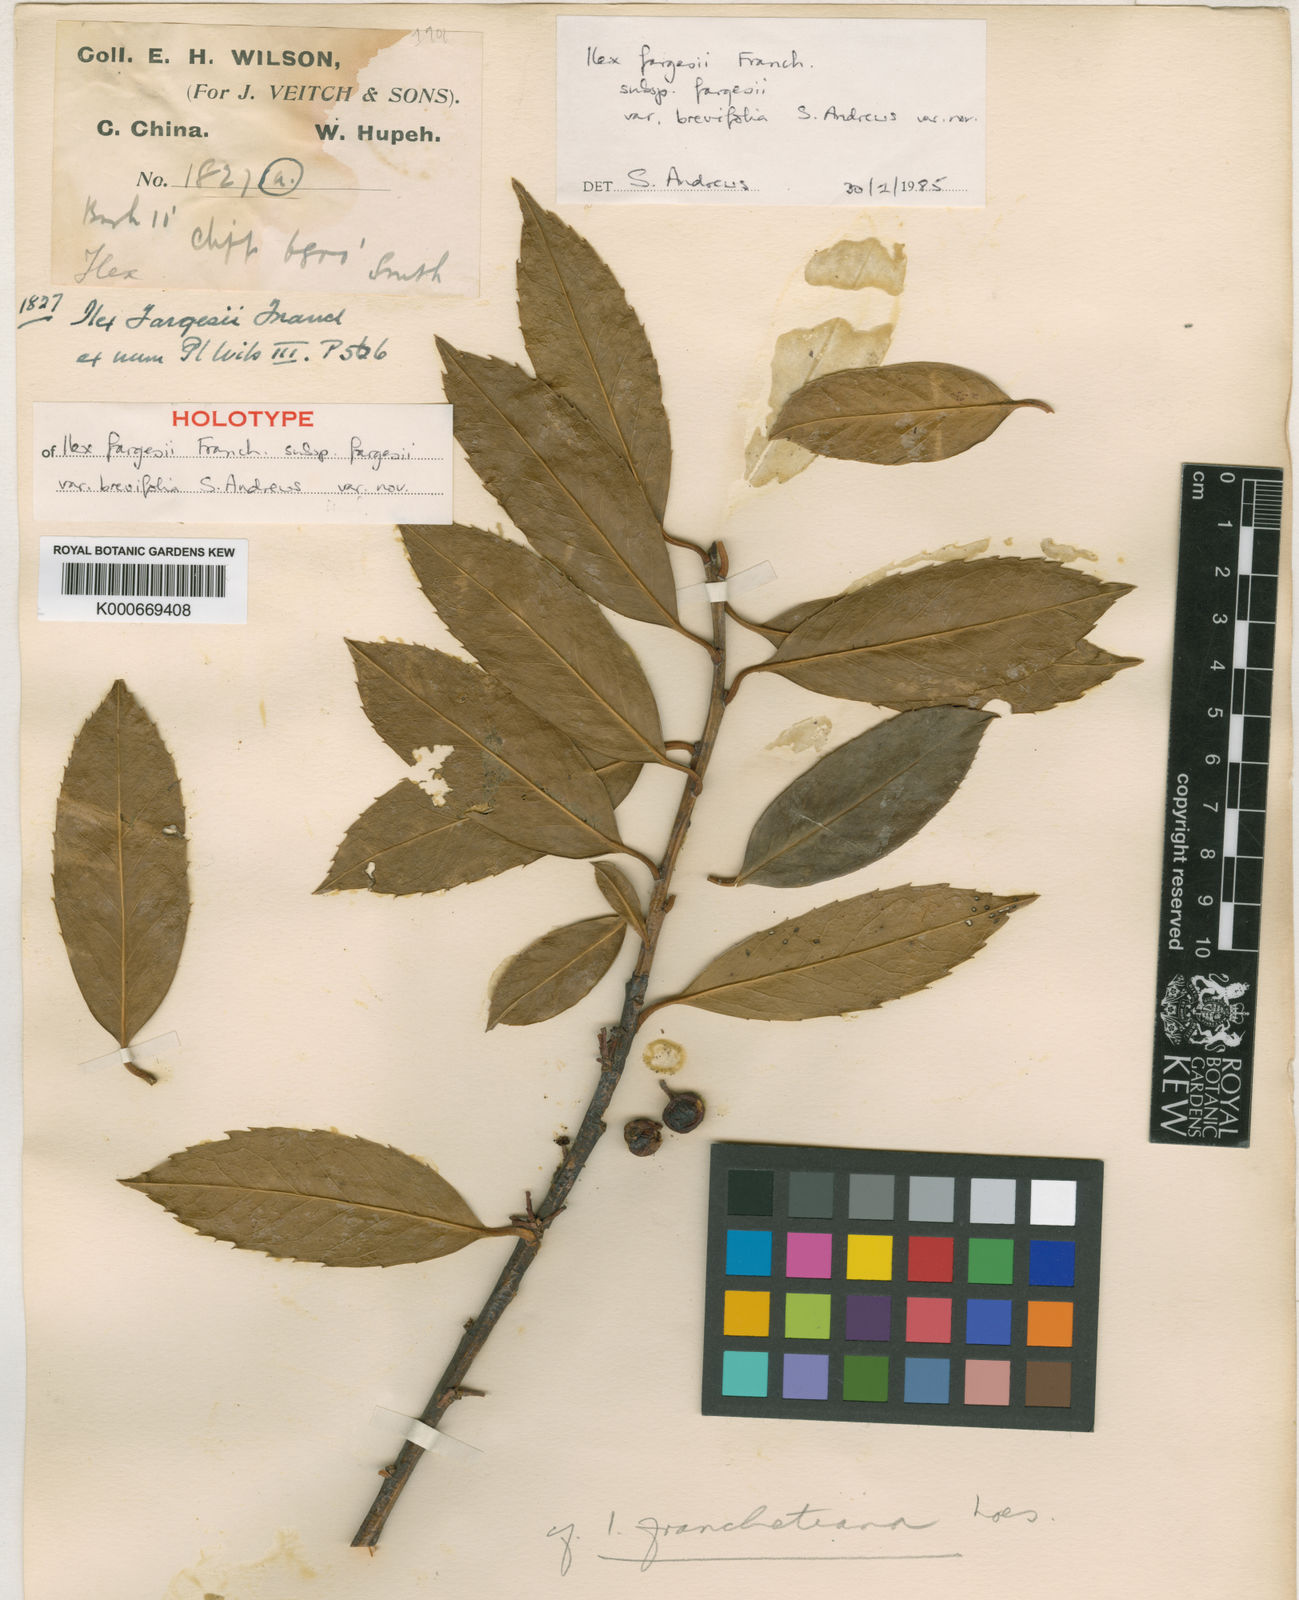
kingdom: Plantae
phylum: Tracheophyta
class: Magnoliopsida
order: Aquifoliales
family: Aquifoliaceae
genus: Ilex
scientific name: Ilex fargesii
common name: Farges’s holly
